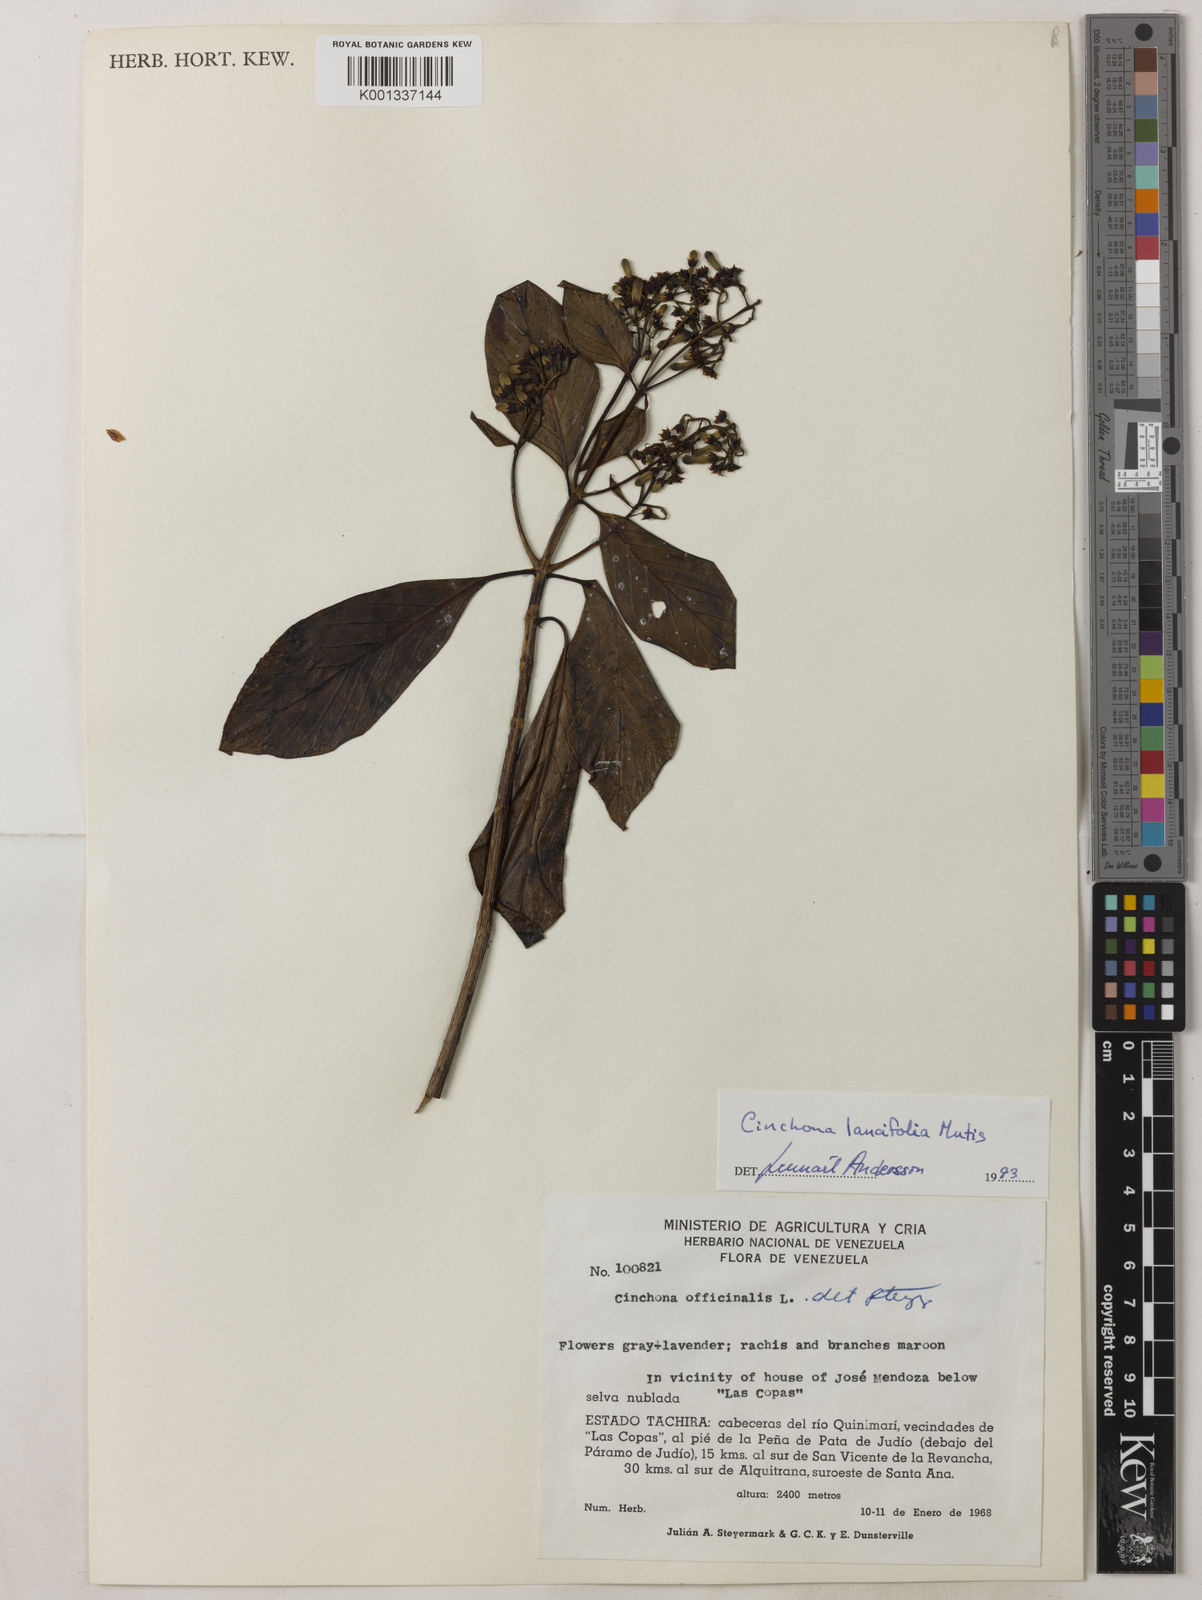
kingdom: Plantae
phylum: Tracheophyta
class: Magnoliopsida
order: Gentianales
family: Rubiaceae
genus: Cinchona
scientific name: Cinchona lancifolia
